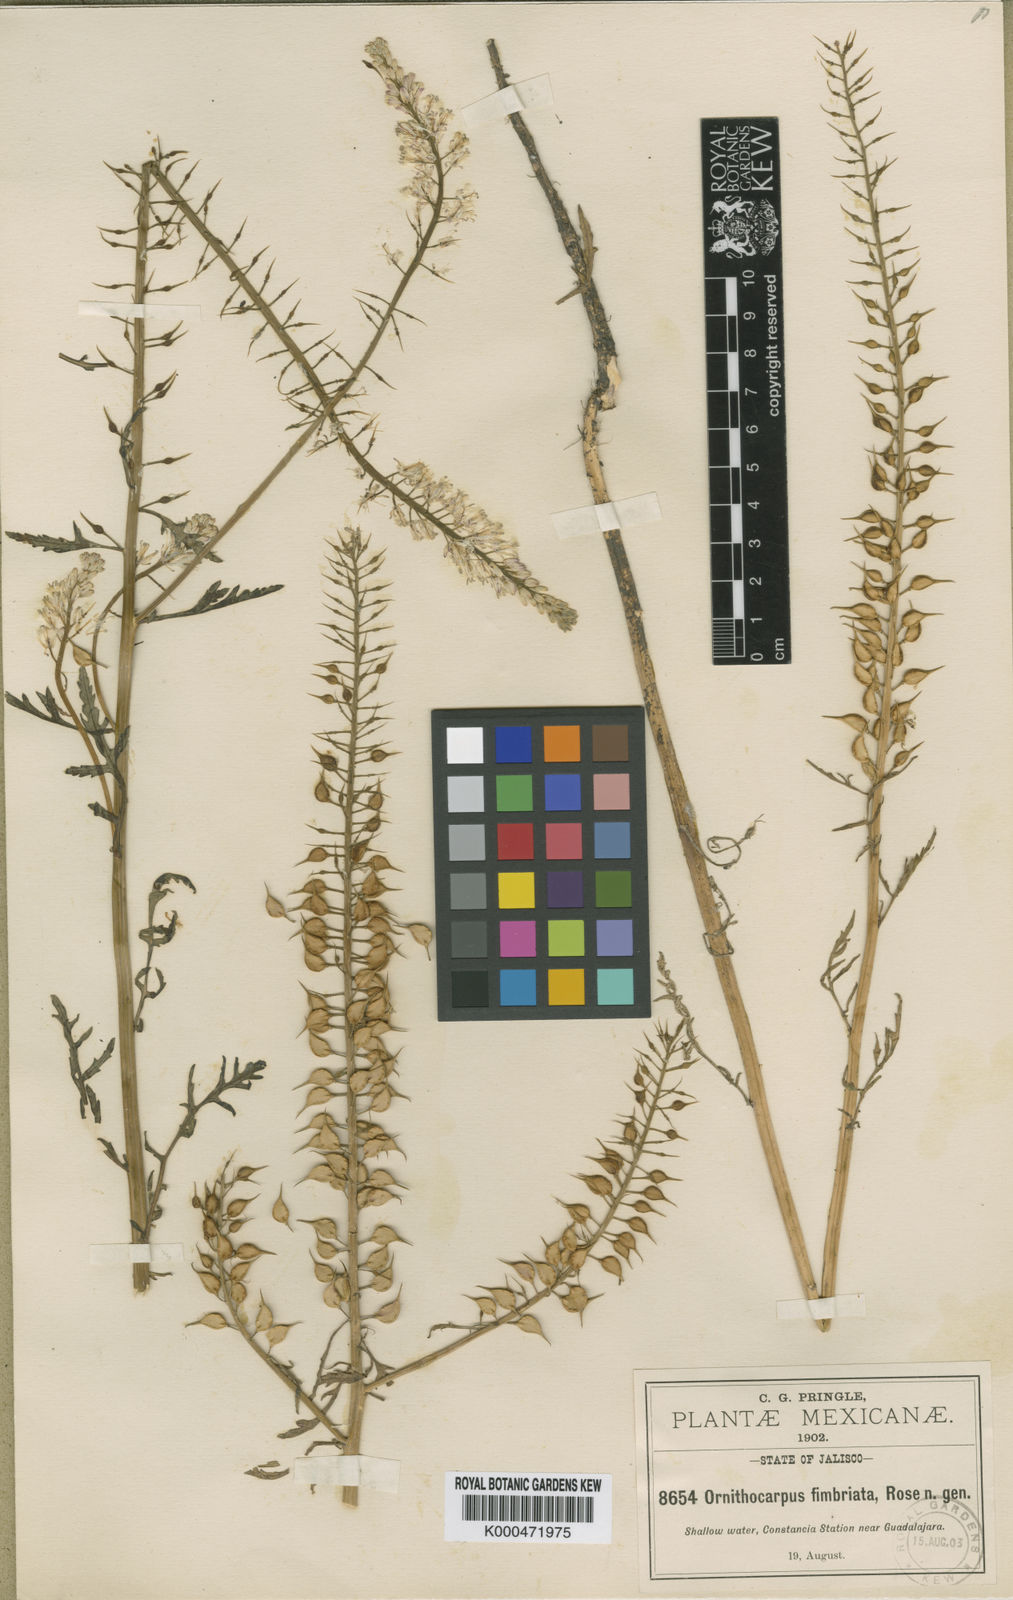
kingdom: Plantae
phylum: Tracheophyta
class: Magnoliopsida
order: Brassicales
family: Brassicaceae
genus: Ornithocarpa
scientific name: Ornithocarpa fimbriata
